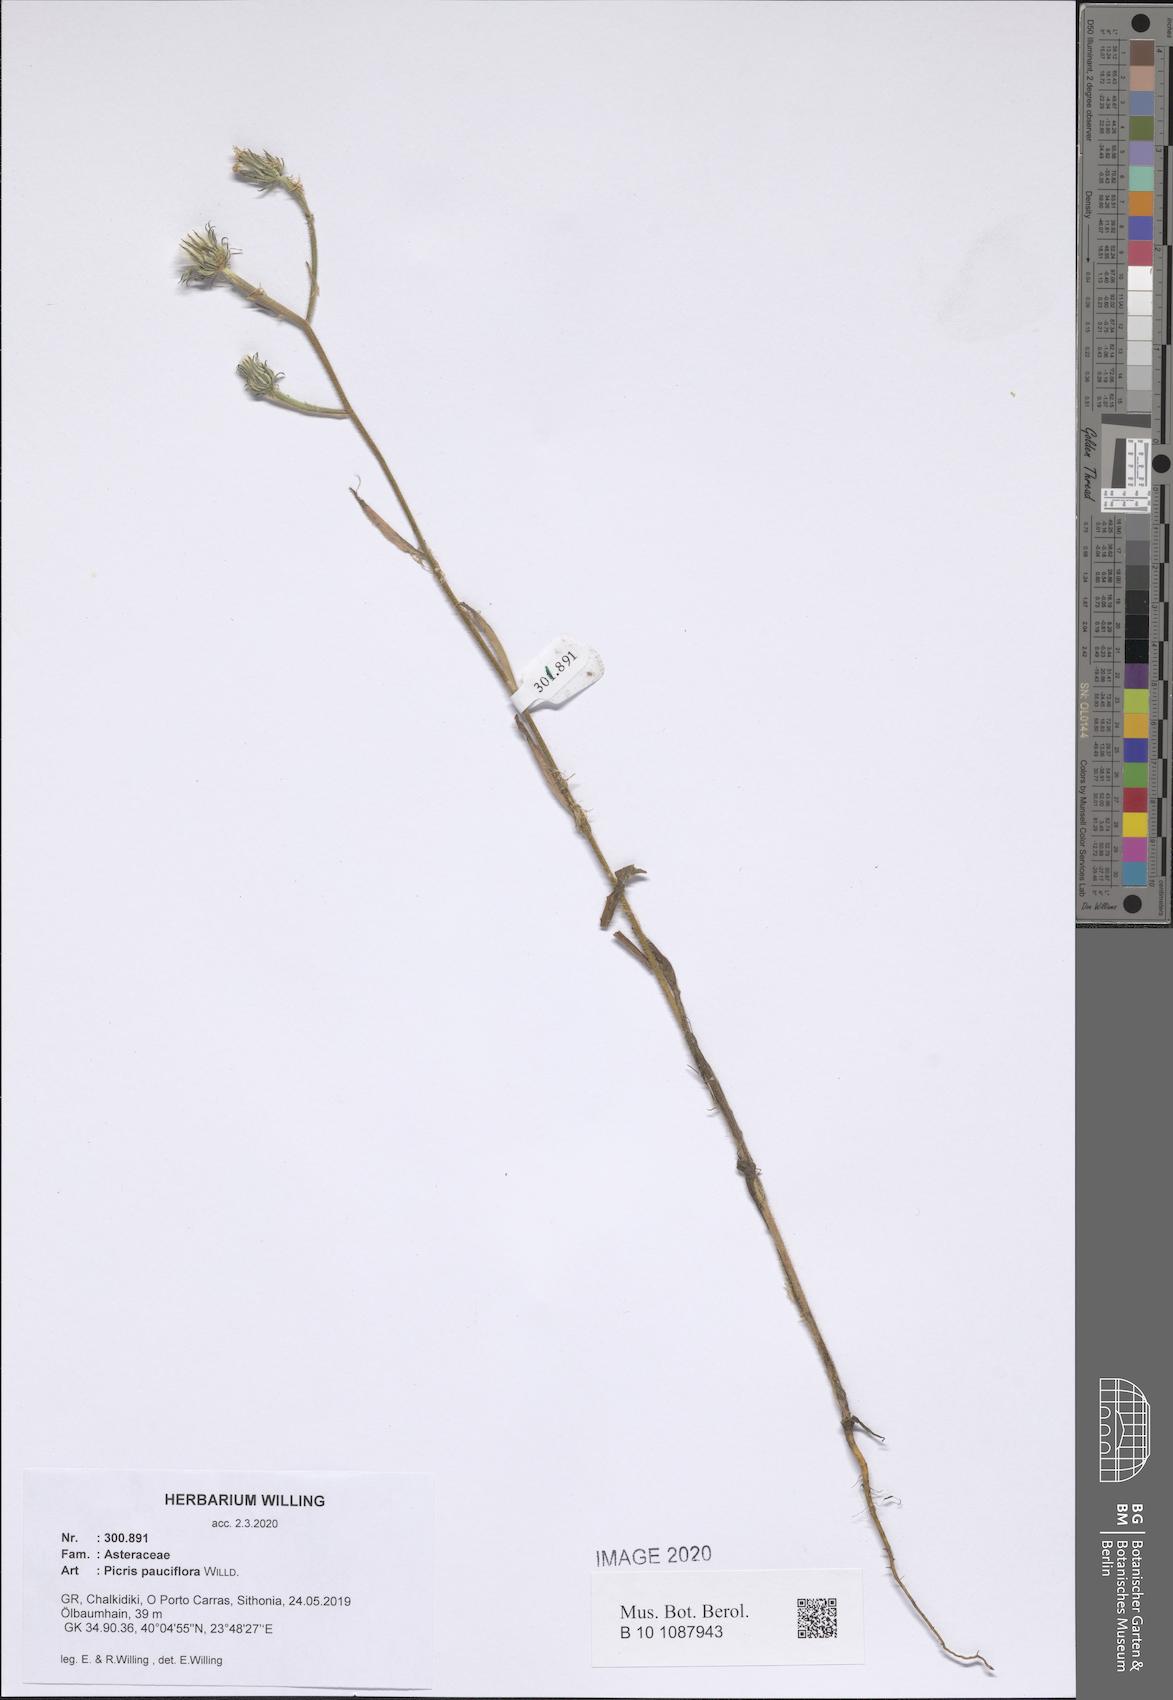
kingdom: Plantae
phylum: Tracheophyta
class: Magnoliopsida
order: Asterales
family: Asteraceae
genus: Picris
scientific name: Picris pauciflora
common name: Smallflower oxtongue
